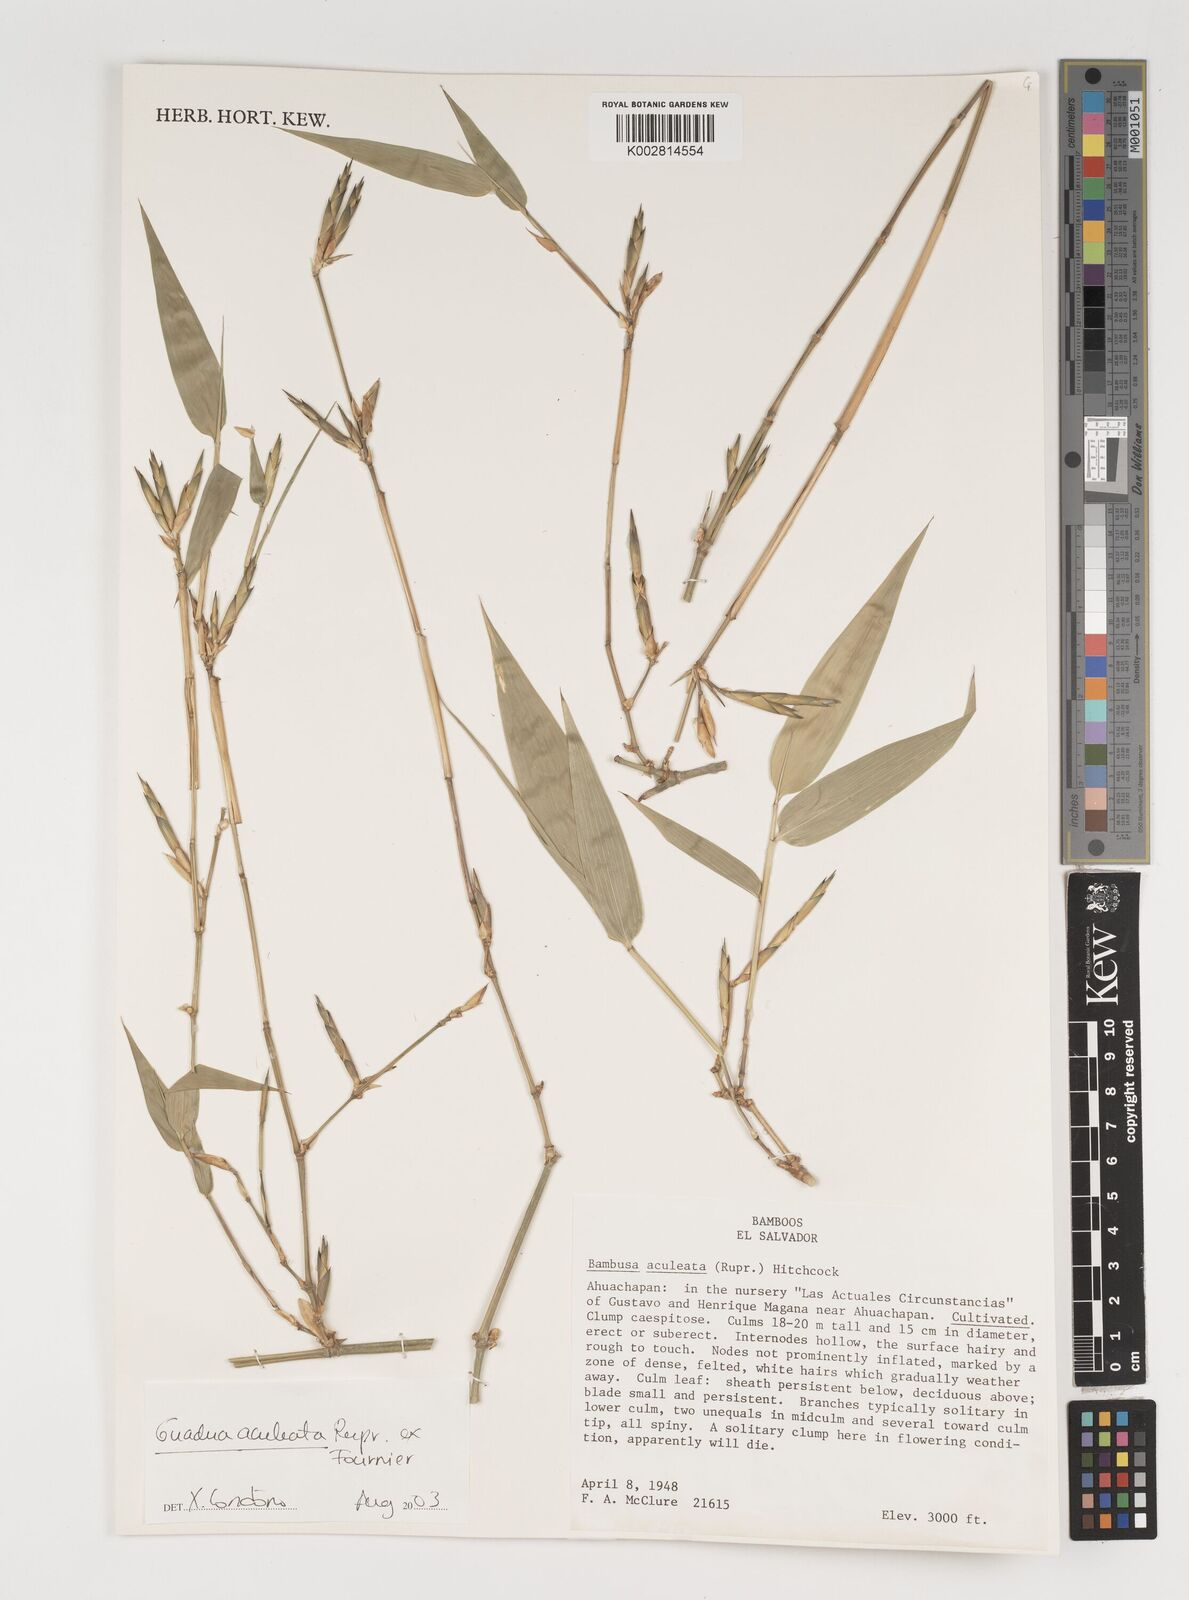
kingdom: Plantae
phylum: Tracheophyta
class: Liliopsida
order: Poales
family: Poaceae
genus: Guadua
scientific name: Guadua aculeata
